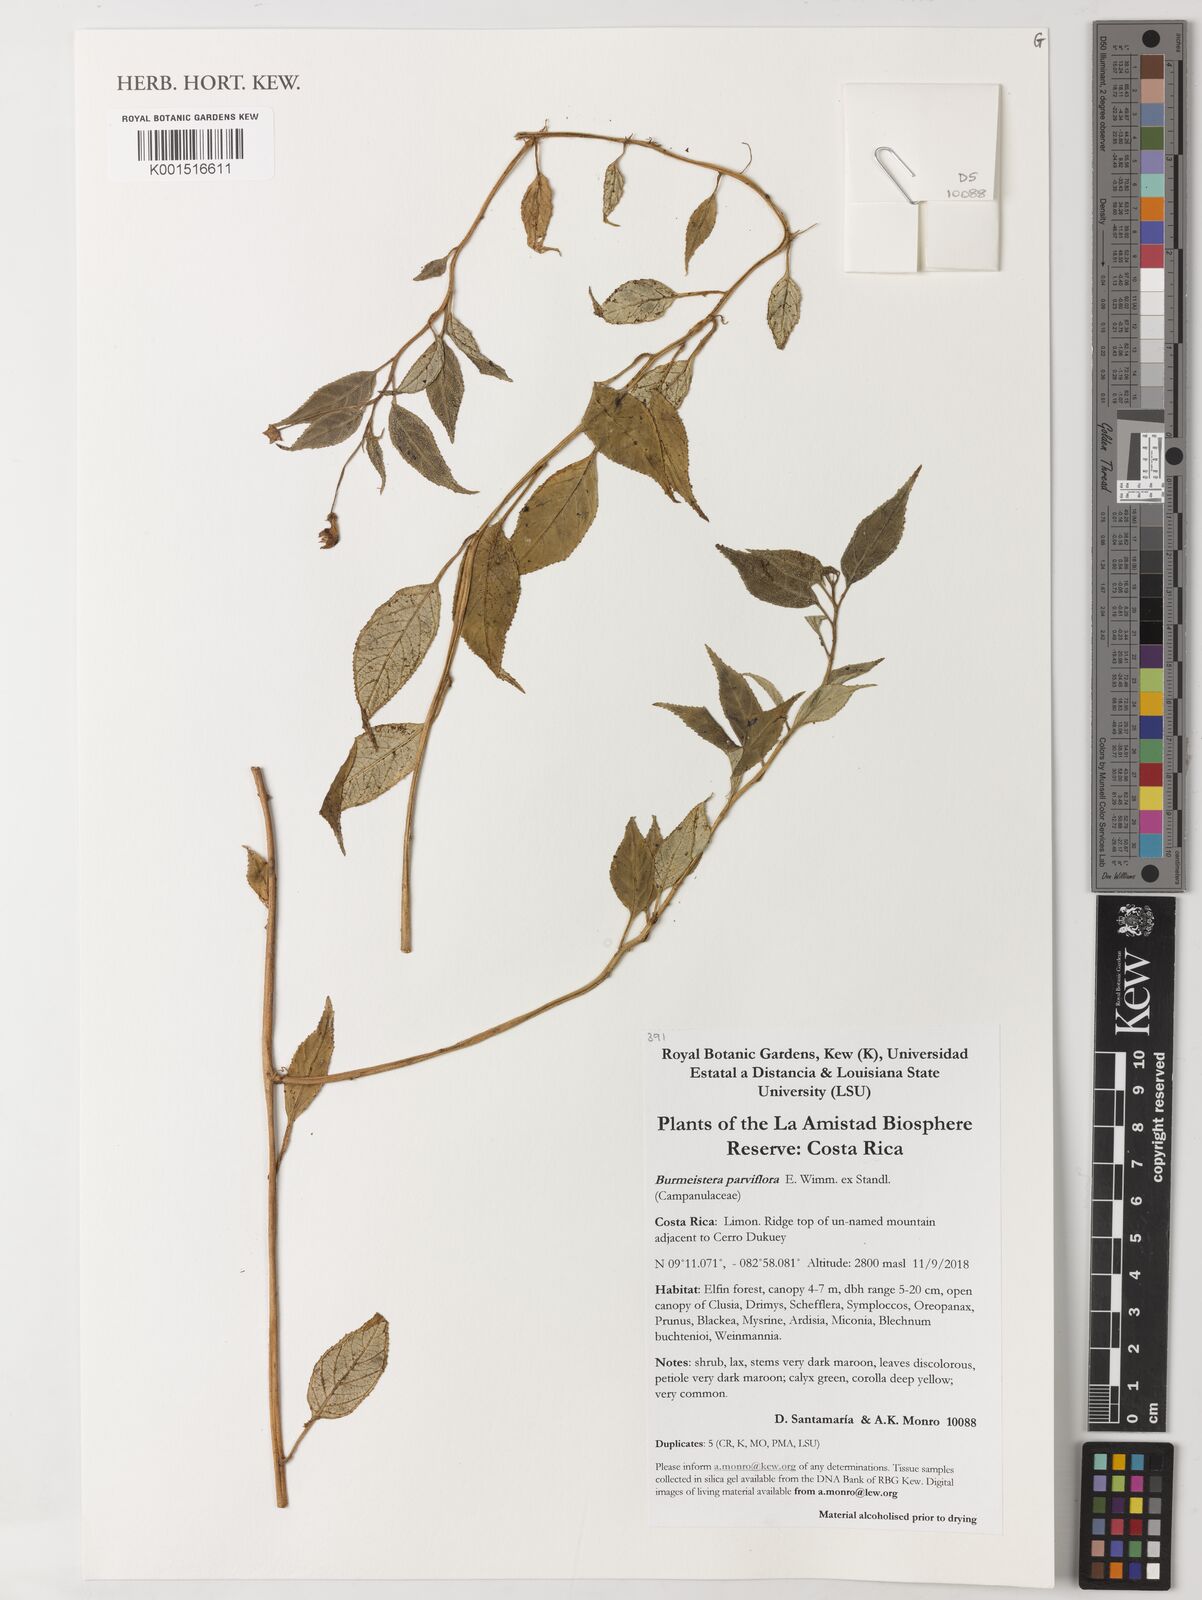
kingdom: Plantae
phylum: Tracheophyta
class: Magnoliopsida
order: Asterales
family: Campanulaceae
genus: Burmeistera
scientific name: Burmeistera parviflora
